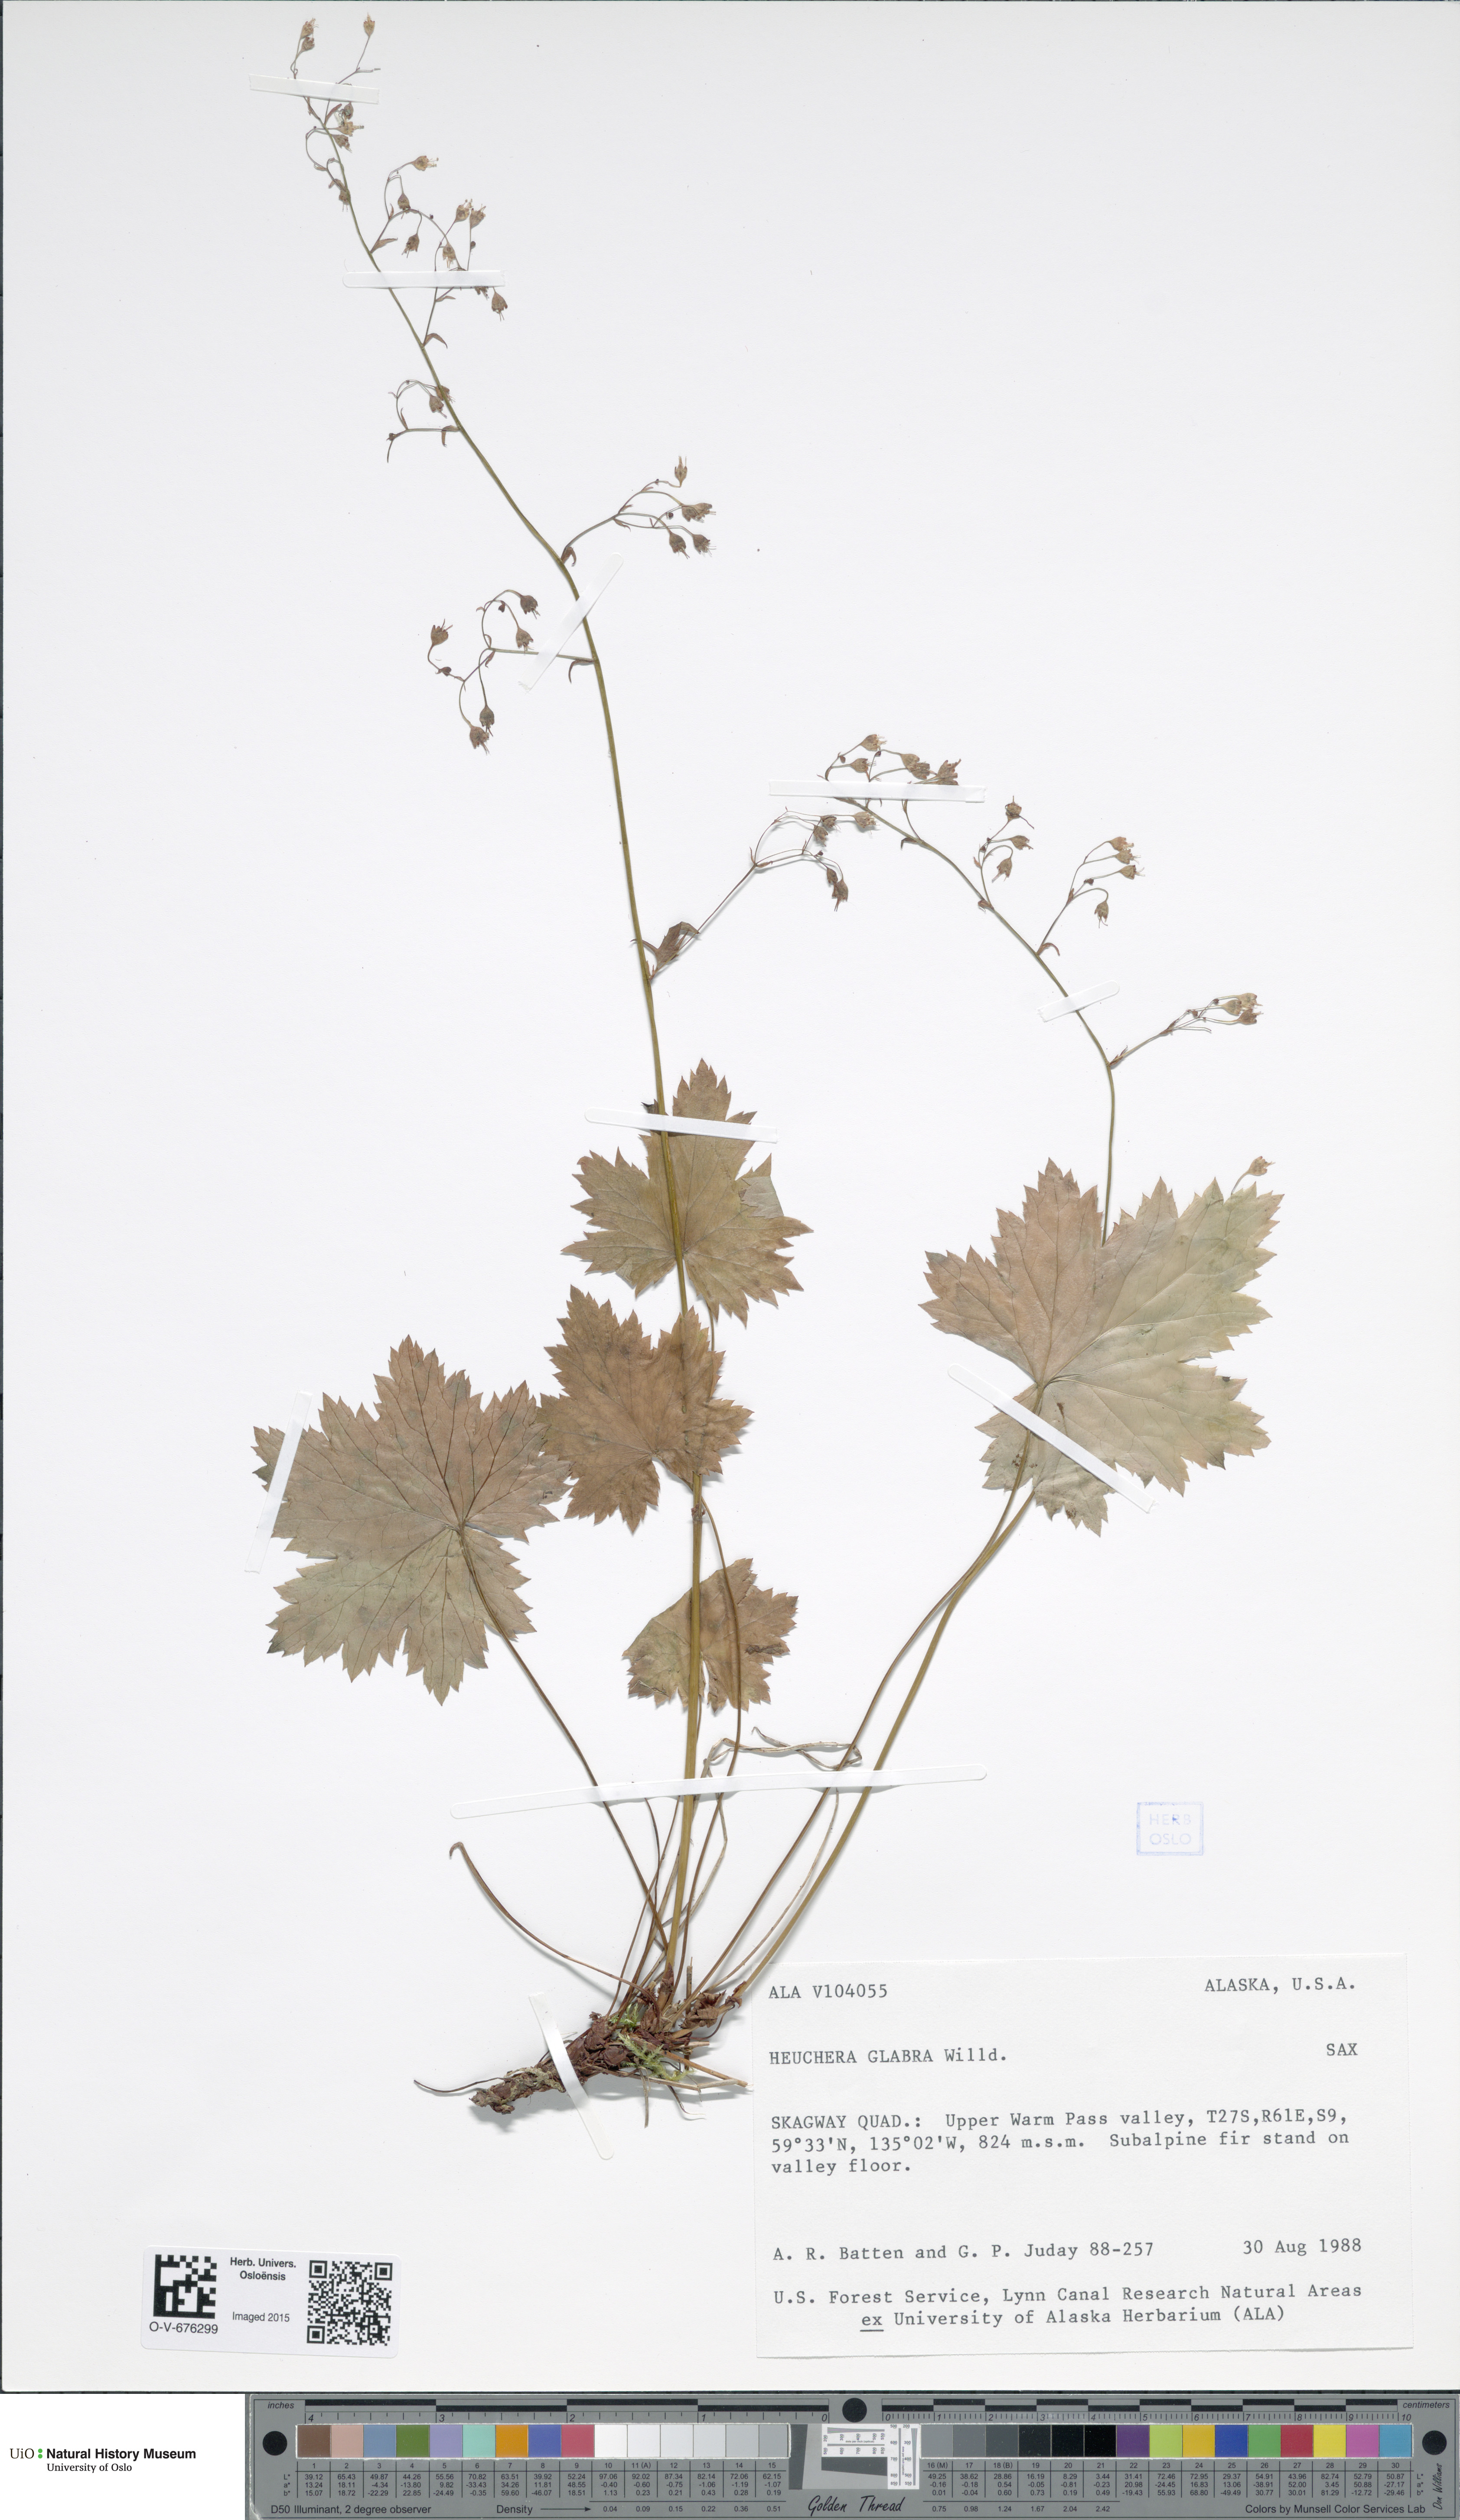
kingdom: Plantae
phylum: Tracheophyta
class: Magnoliopsida
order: Saxifragales
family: Saxifragaceae
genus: Heuchera
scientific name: Heuchera glabra
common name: Alpine alumroot
